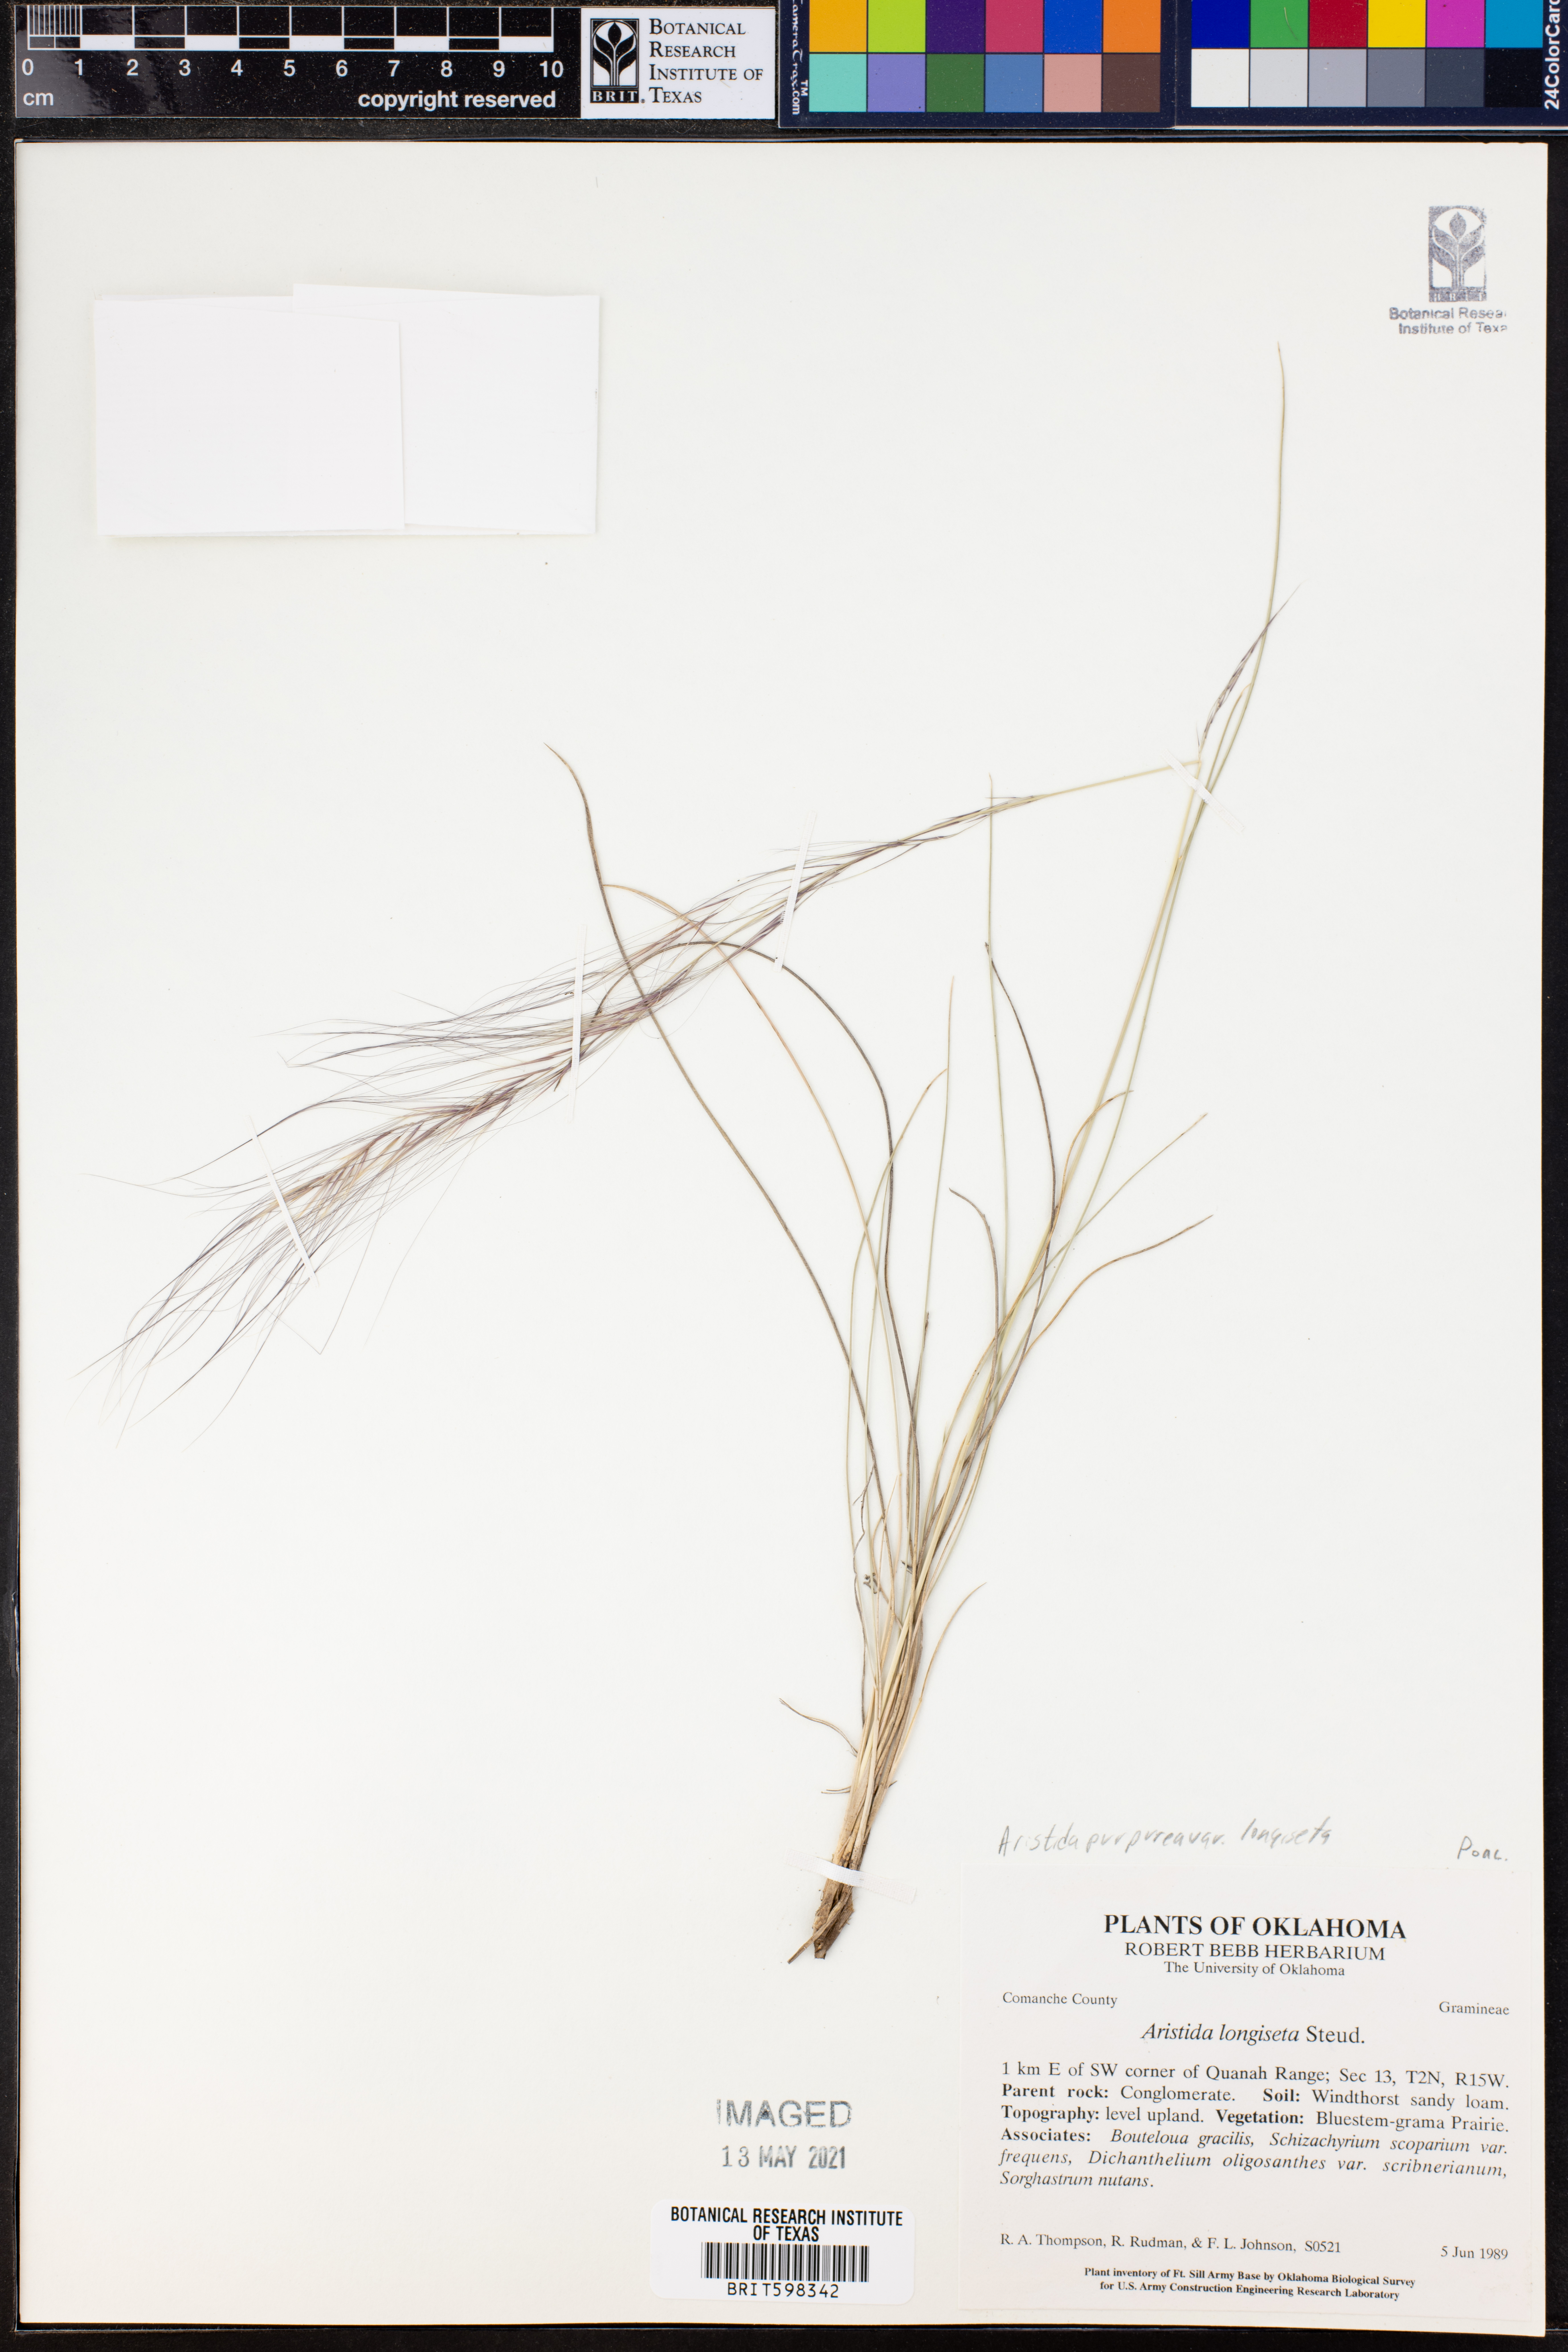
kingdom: Plantae
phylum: Tracheophyta
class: Liliopsida
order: Poales
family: Poaceae
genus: Aristida
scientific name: Aristida purpurea
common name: Purple threeawn
